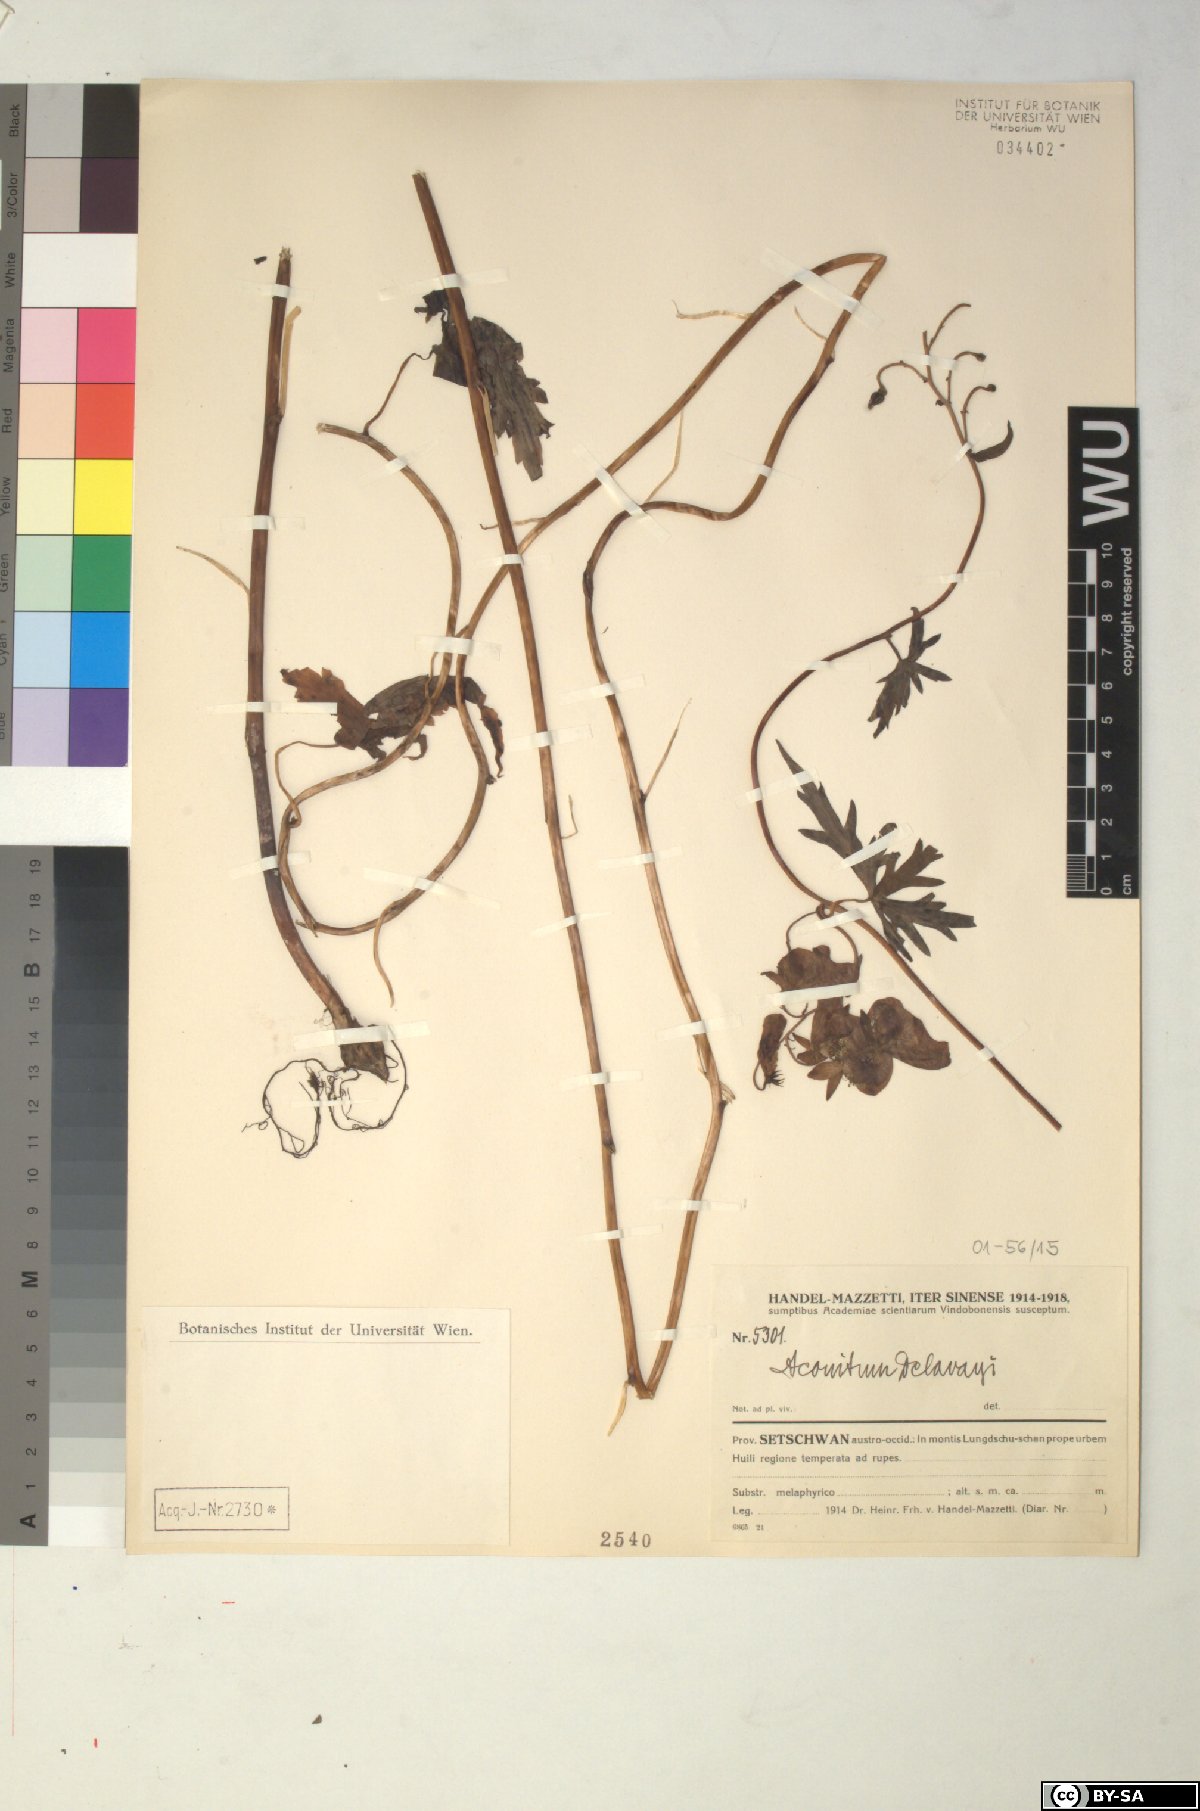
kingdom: Plantae
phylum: Tracheophyta
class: Magnoliopsida
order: Ranunculales
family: Ranunculaceae
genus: Aconitum
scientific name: Aconitum delavayi
